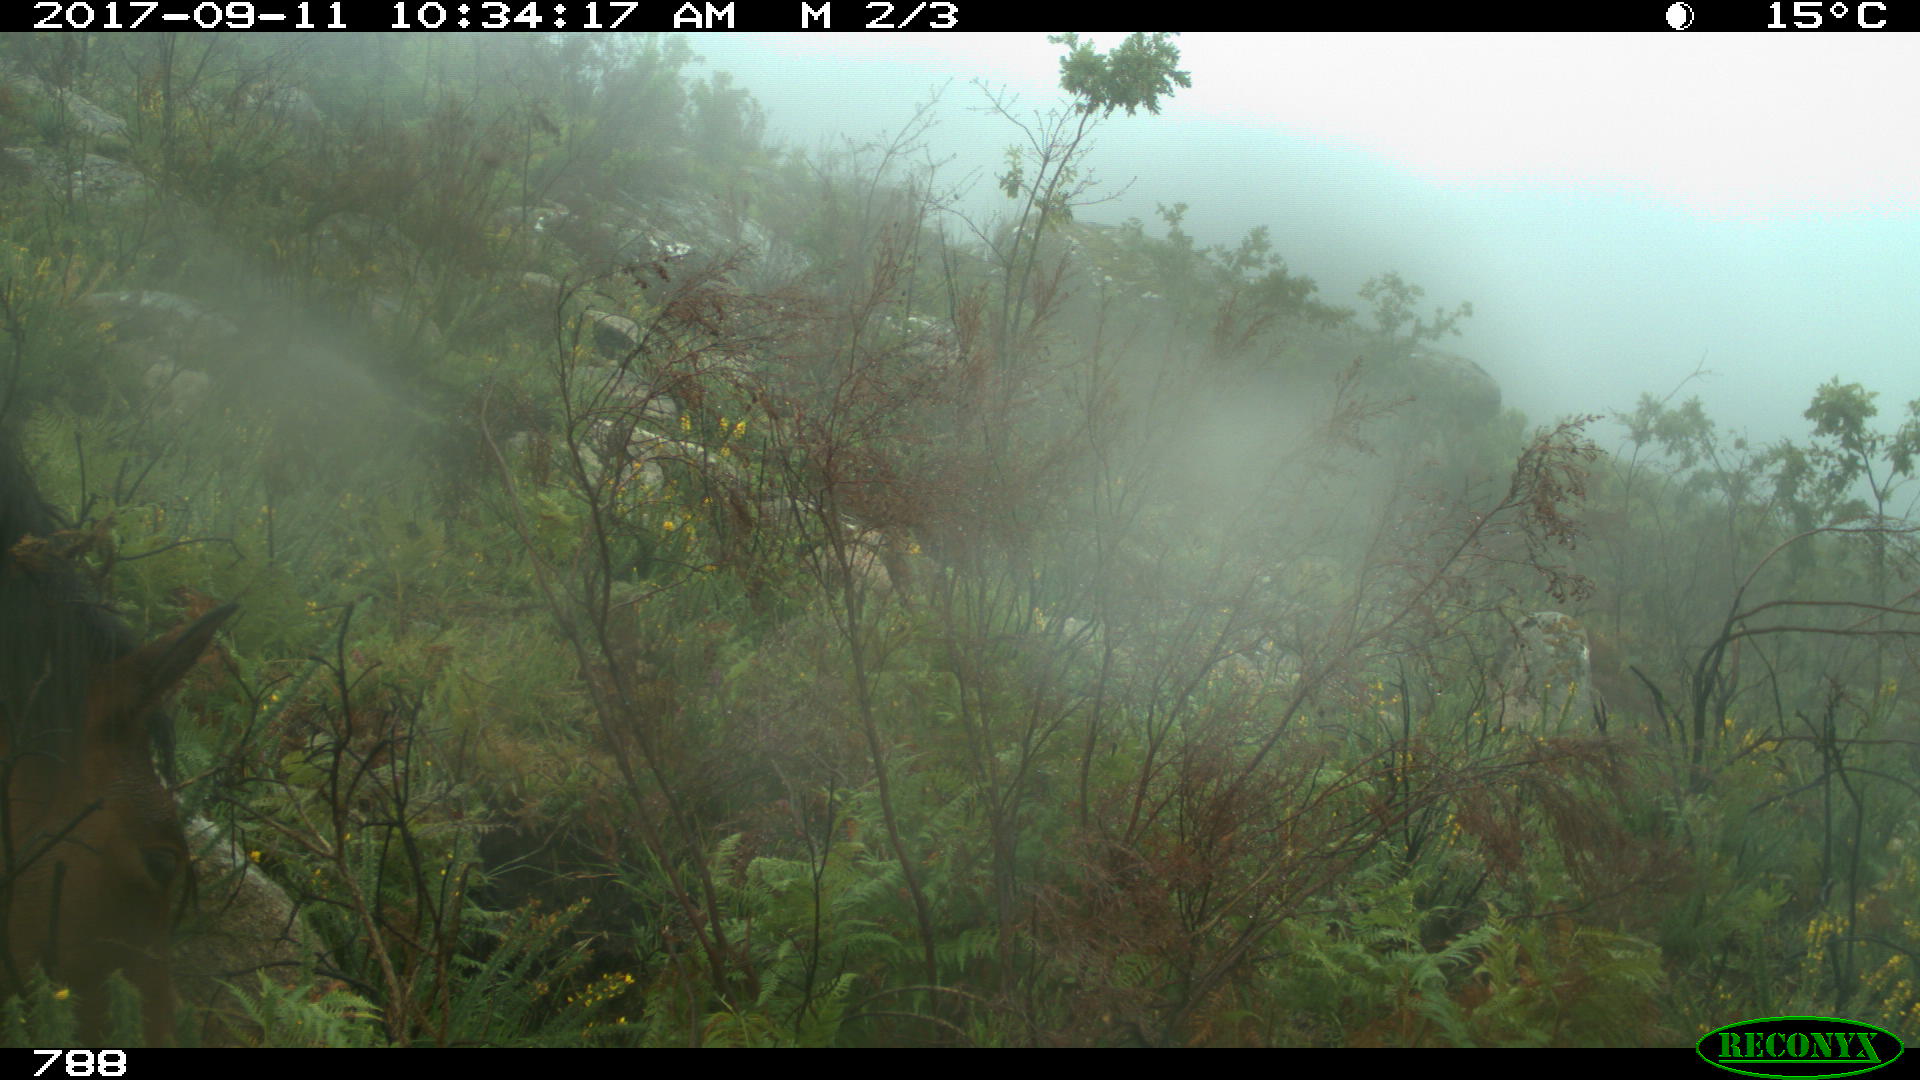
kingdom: Animalia
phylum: Chordata
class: Mammalia
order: Perissodactyla
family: Equidae
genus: Equus
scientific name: Equus caballus
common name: Horse
